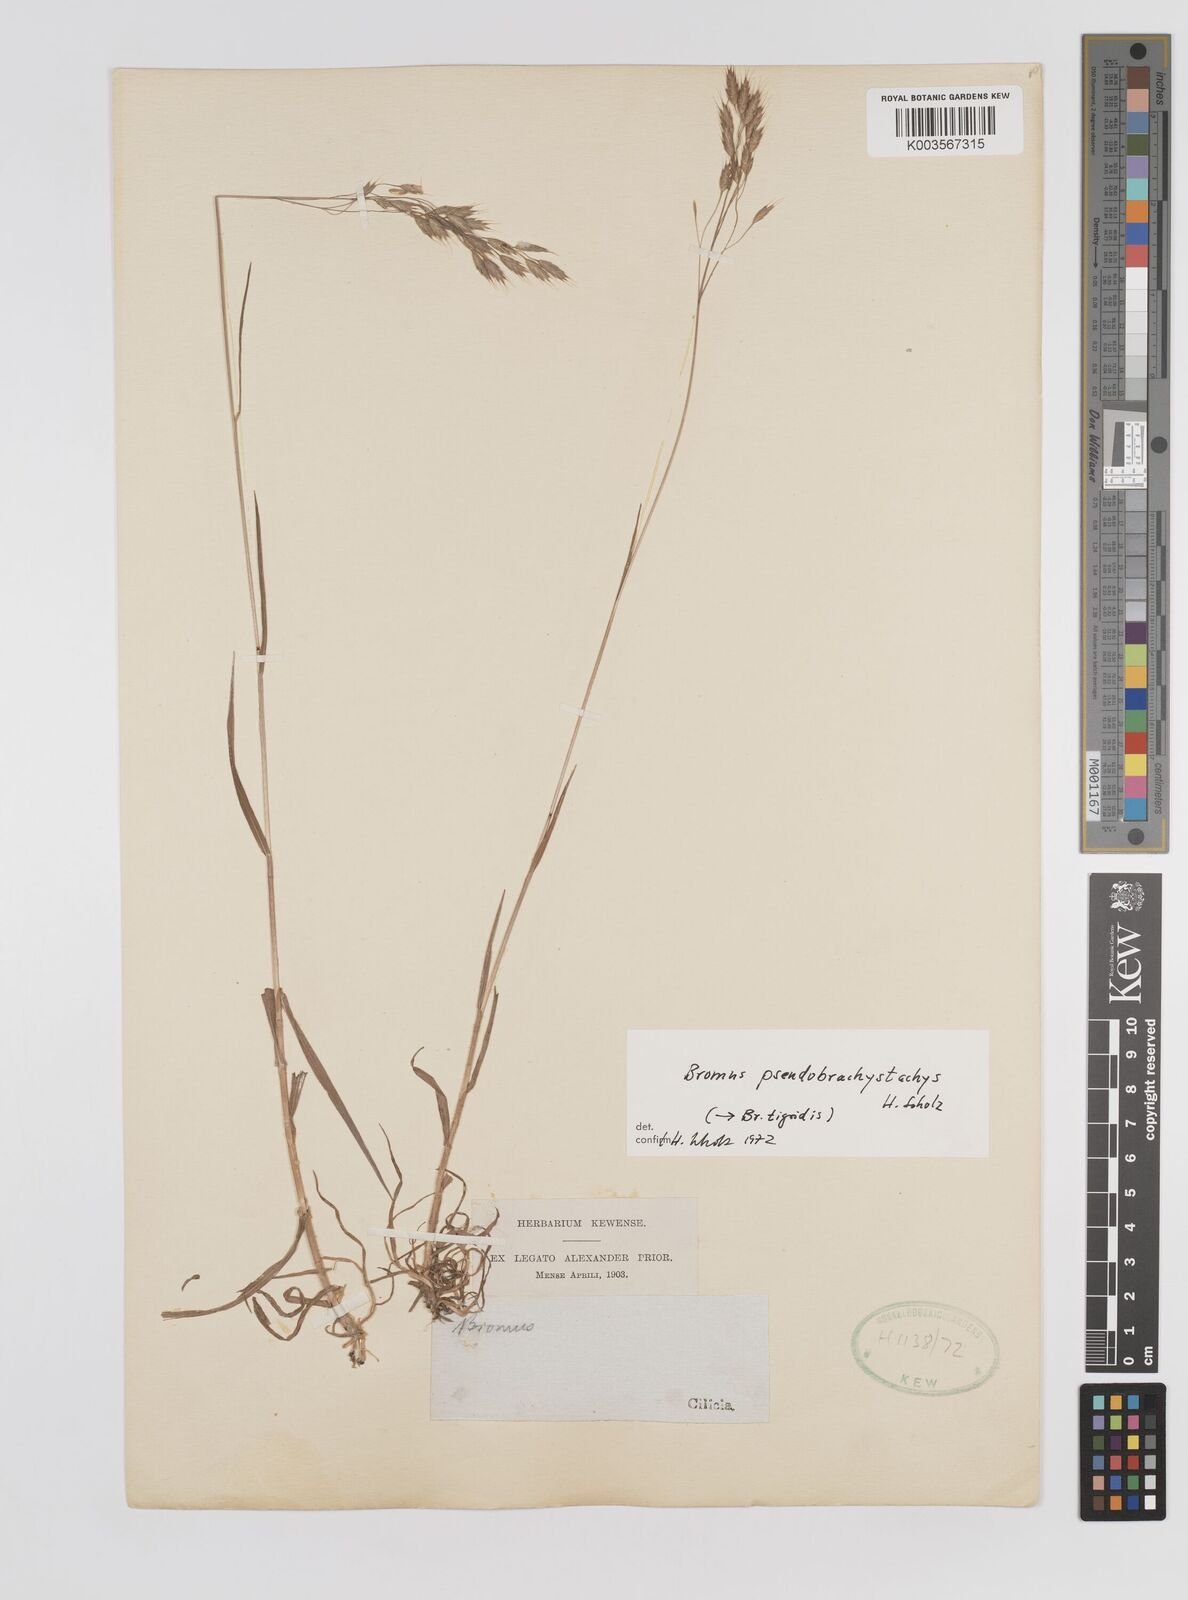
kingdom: Plantae
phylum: Tracheophyta
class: Liliopsida
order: Poales
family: Poaceae
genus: Bromus
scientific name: Bromus pseudobrachystachys
